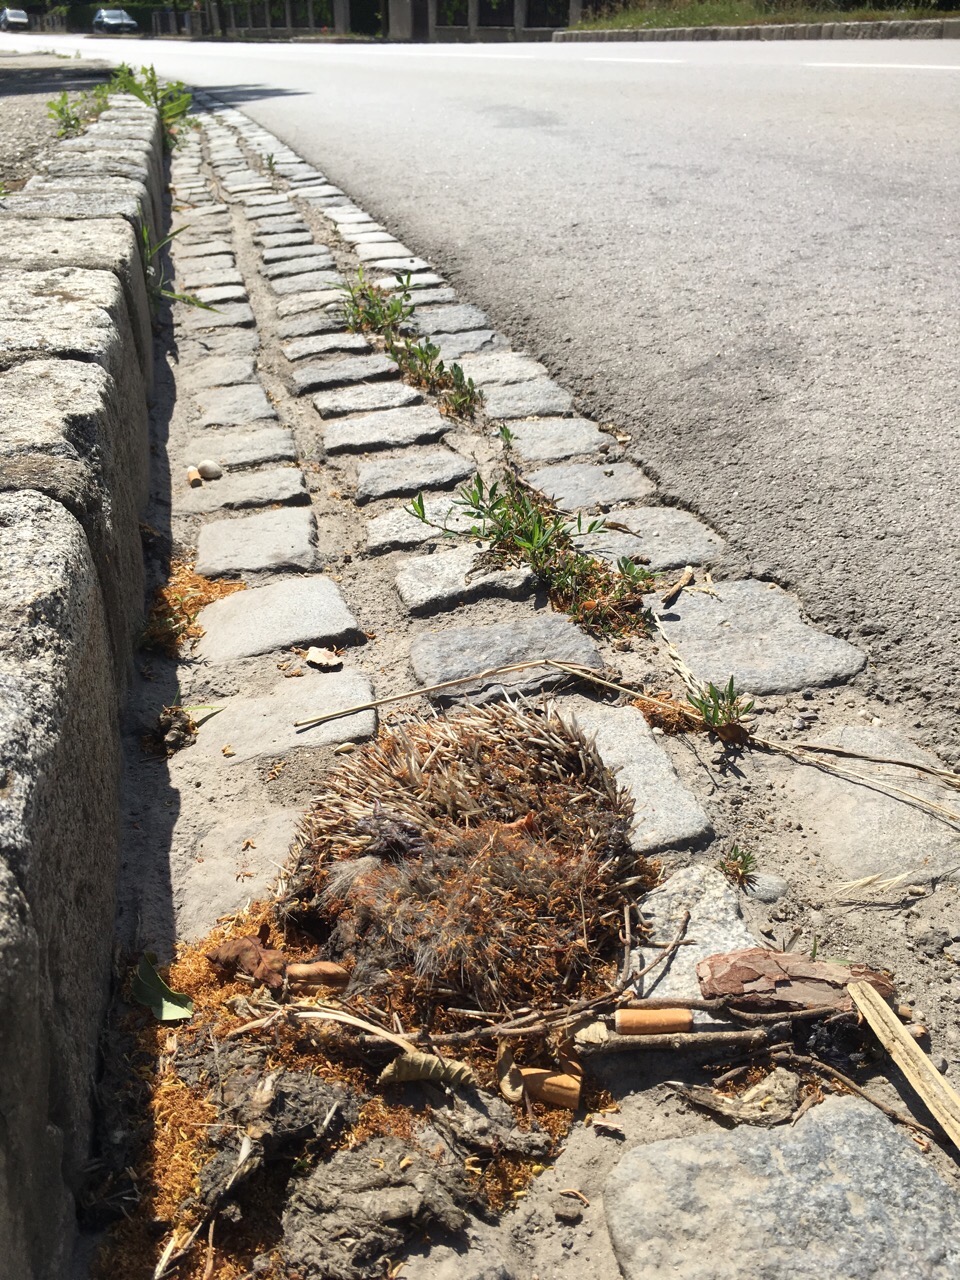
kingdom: Animalia
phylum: Chordata
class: Mammalia
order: Erinaceomorpha
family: Erinaceidae
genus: Erinaceus
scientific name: Erinaceus
